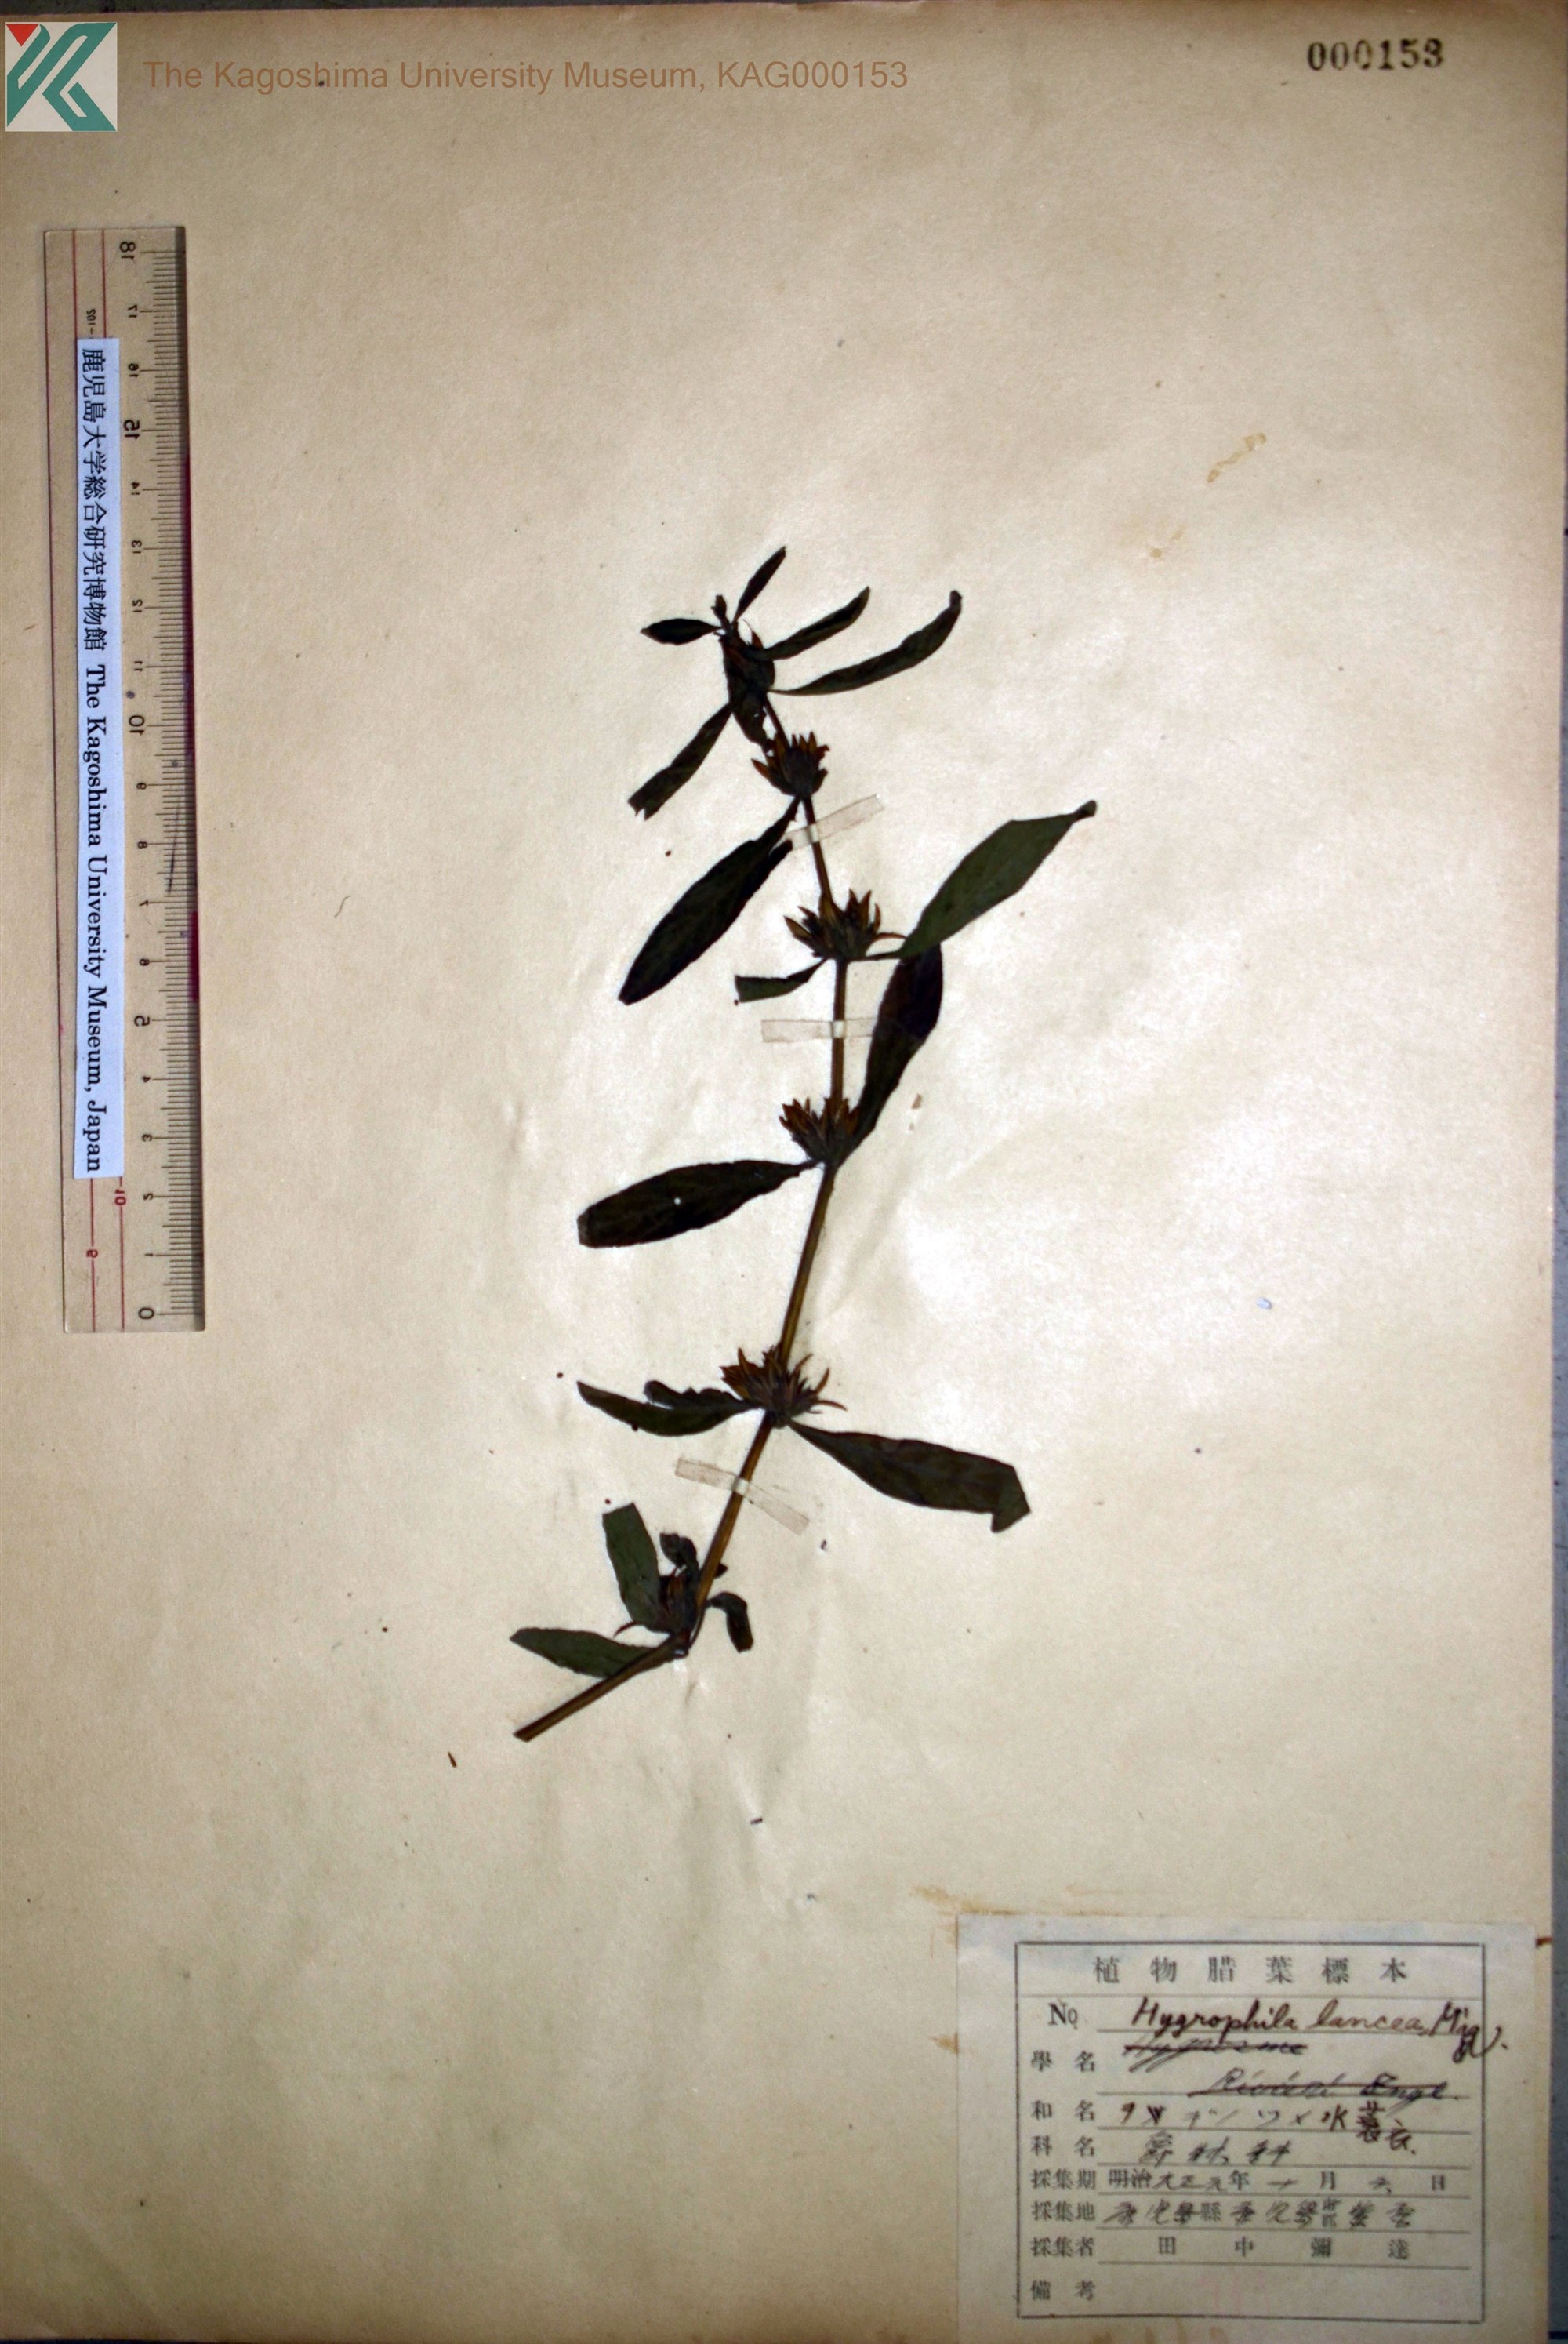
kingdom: Plantae
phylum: Tracheophyta
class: Magnoliopsida
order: Lamiales
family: Acanthaceae
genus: Hygrophila
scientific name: Hygrophila ringens
